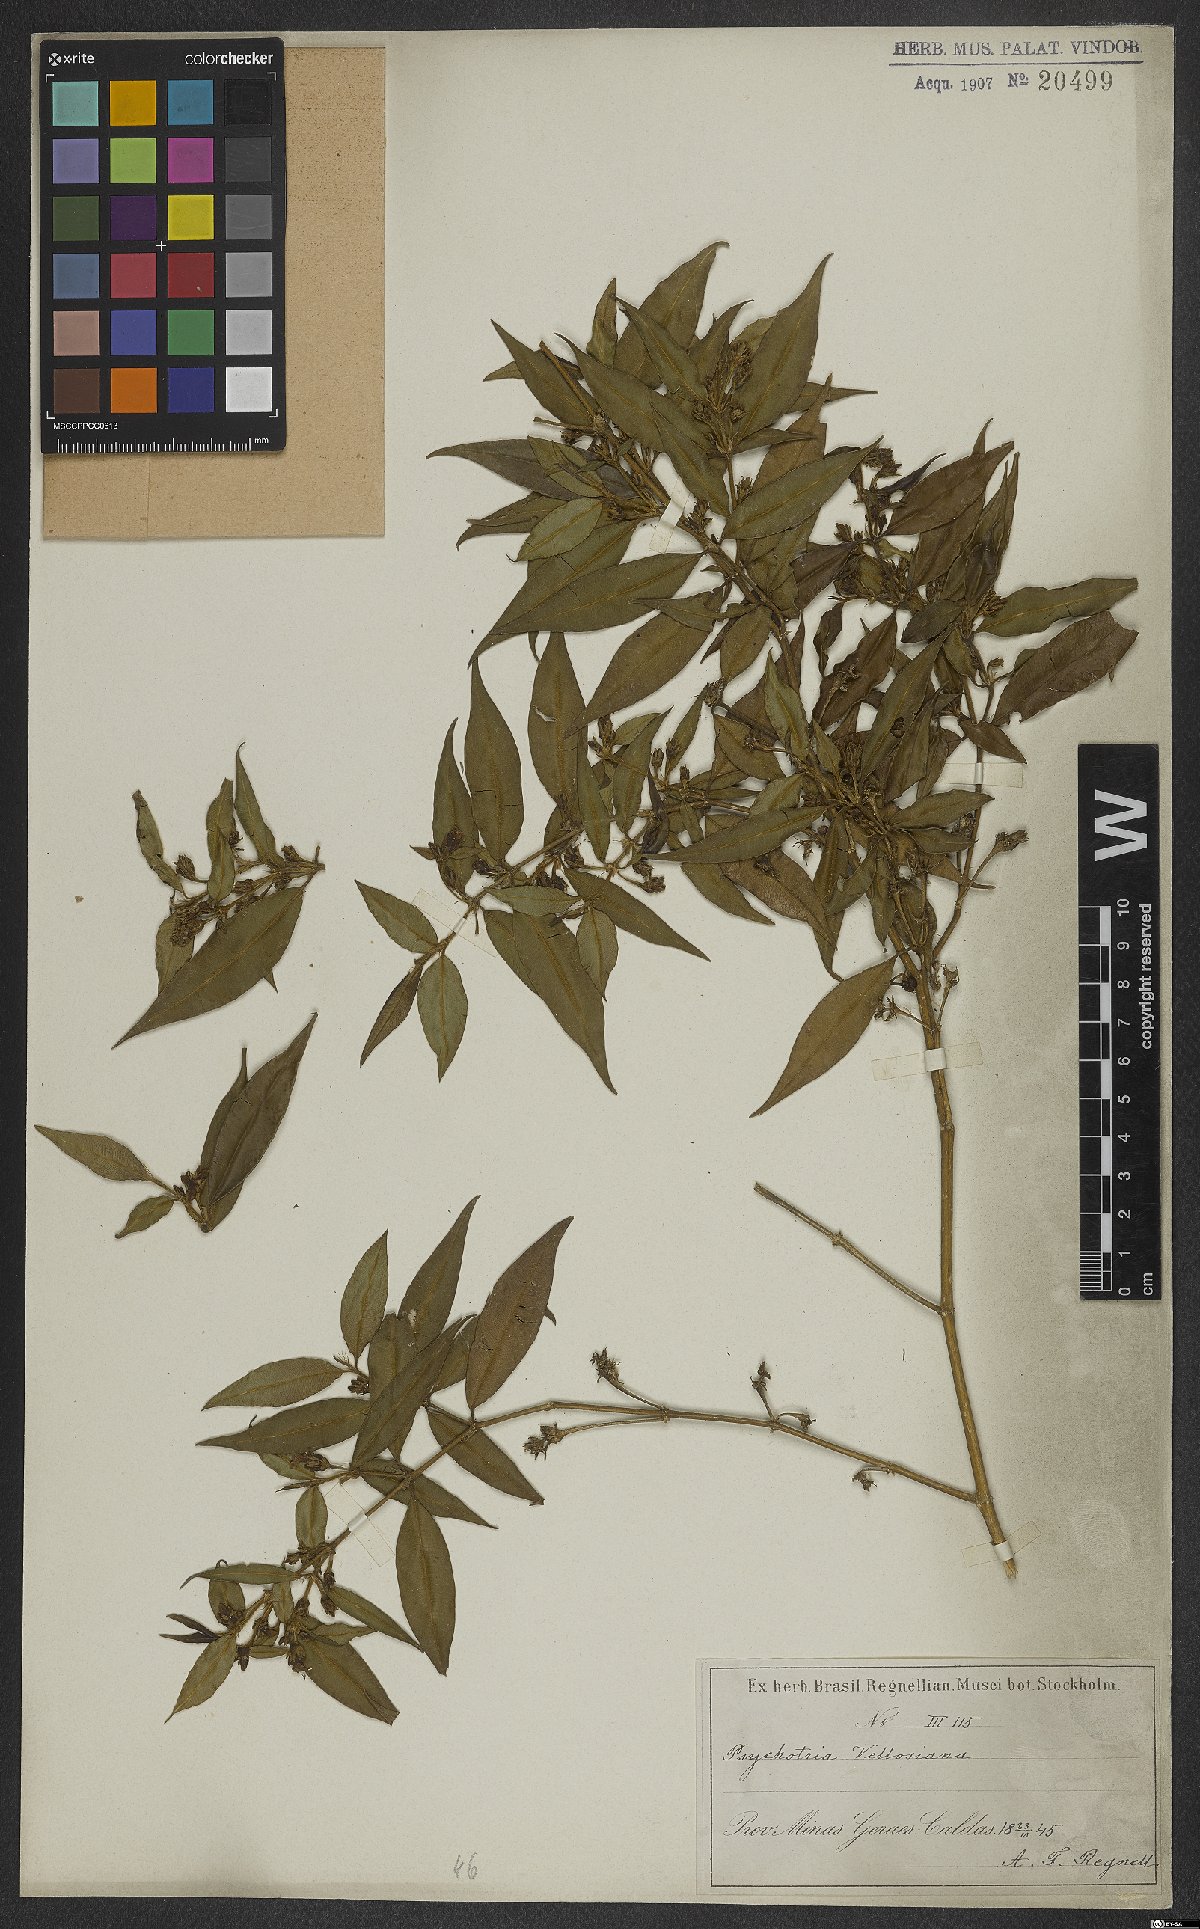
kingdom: Plantae
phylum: Tracheophyta
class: Magnoliopsida
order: Gentianales
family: Rubiaceae
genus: Palicourea
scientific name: Palicourea sessilis
